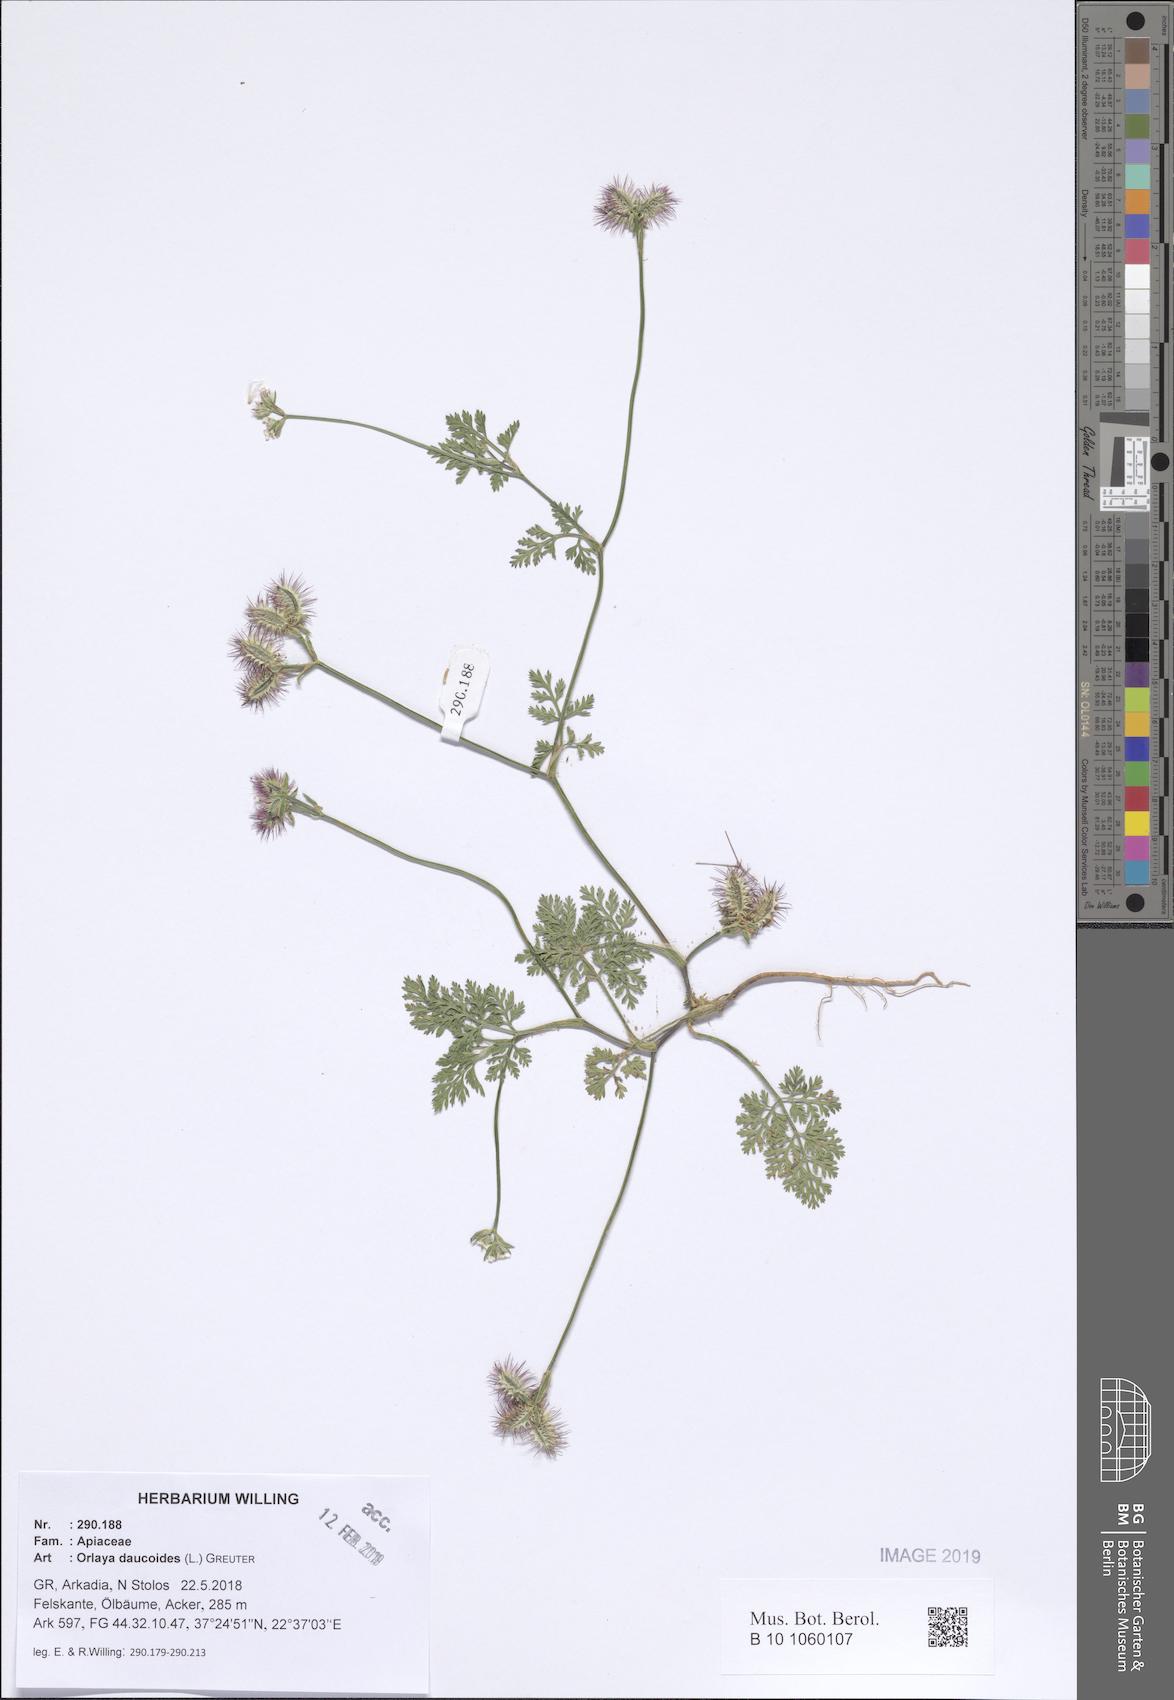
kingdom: Plantae
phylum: Tracheophyta
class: Magnoliopsida
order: Apiales
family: Apiaceae
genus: Orlaya
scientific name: Orlaya daucoides
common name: Flat-fruit orlaya
